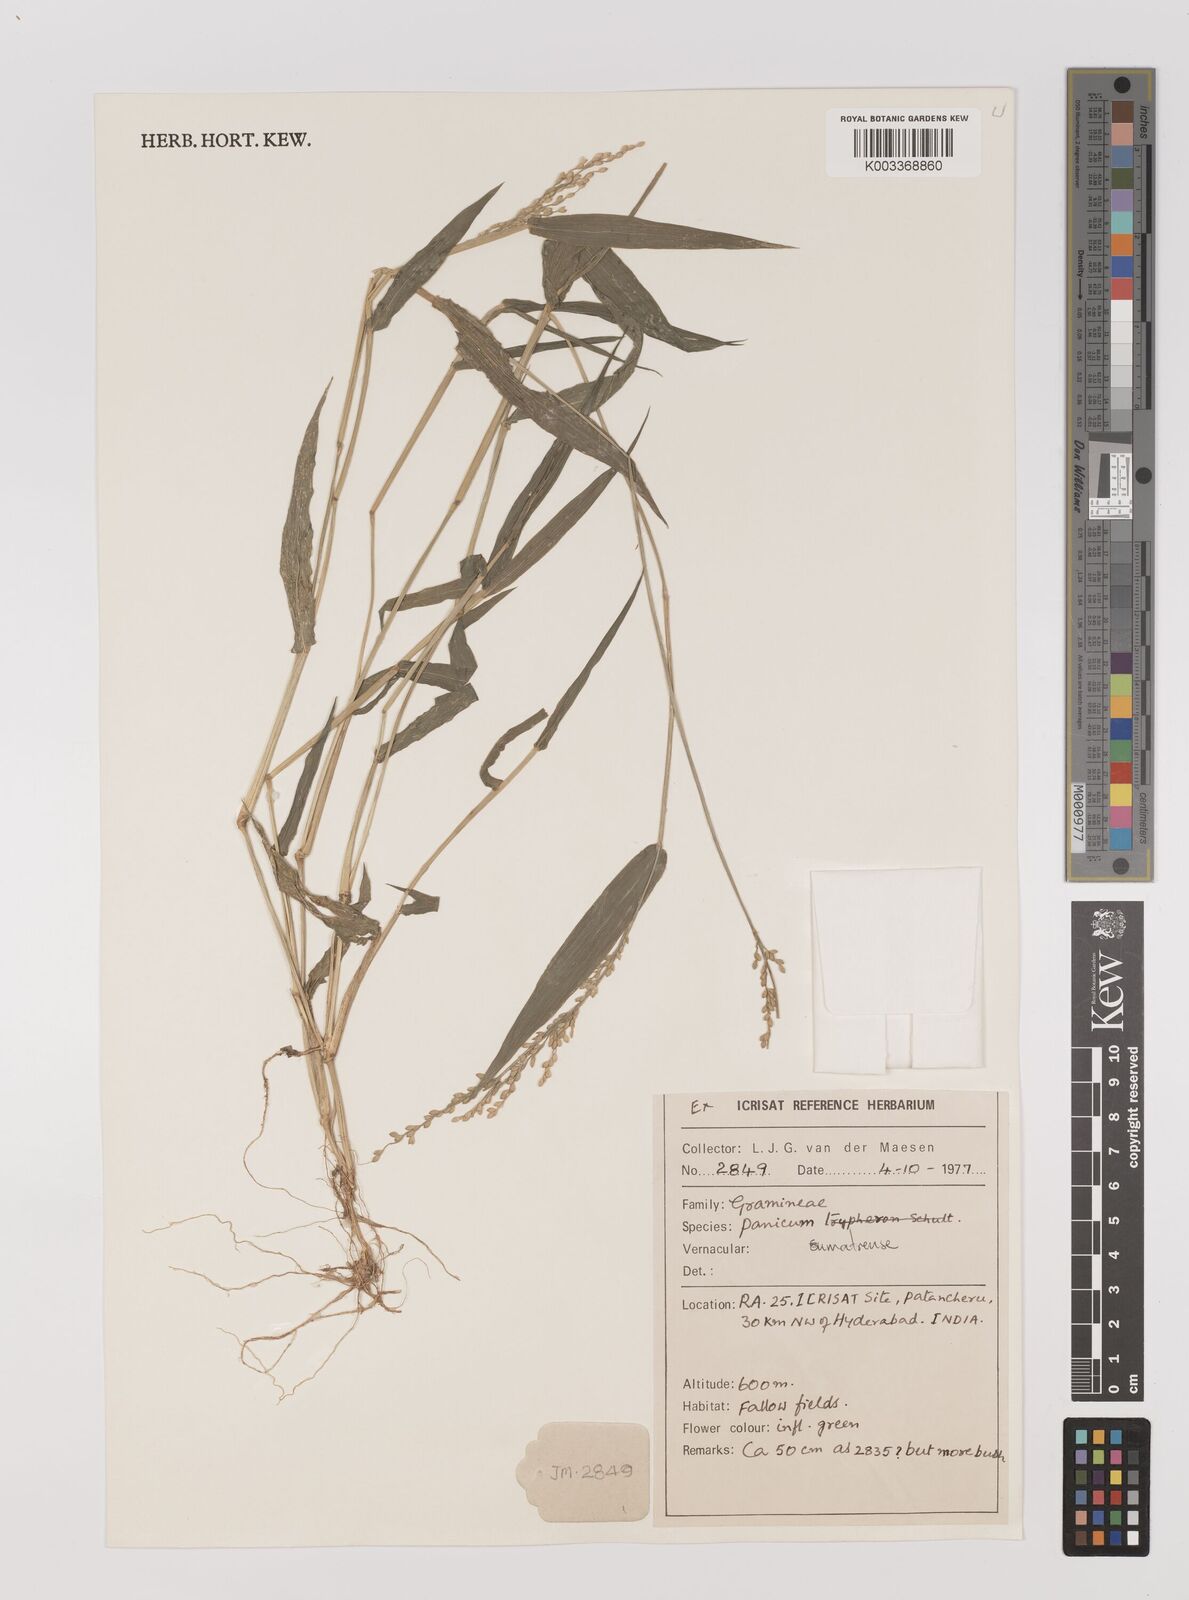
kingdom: Plantae
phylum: Tracheophyta
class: Liliopsida
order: Poales
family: Poaceae
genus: Panicum
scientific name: Panicum
